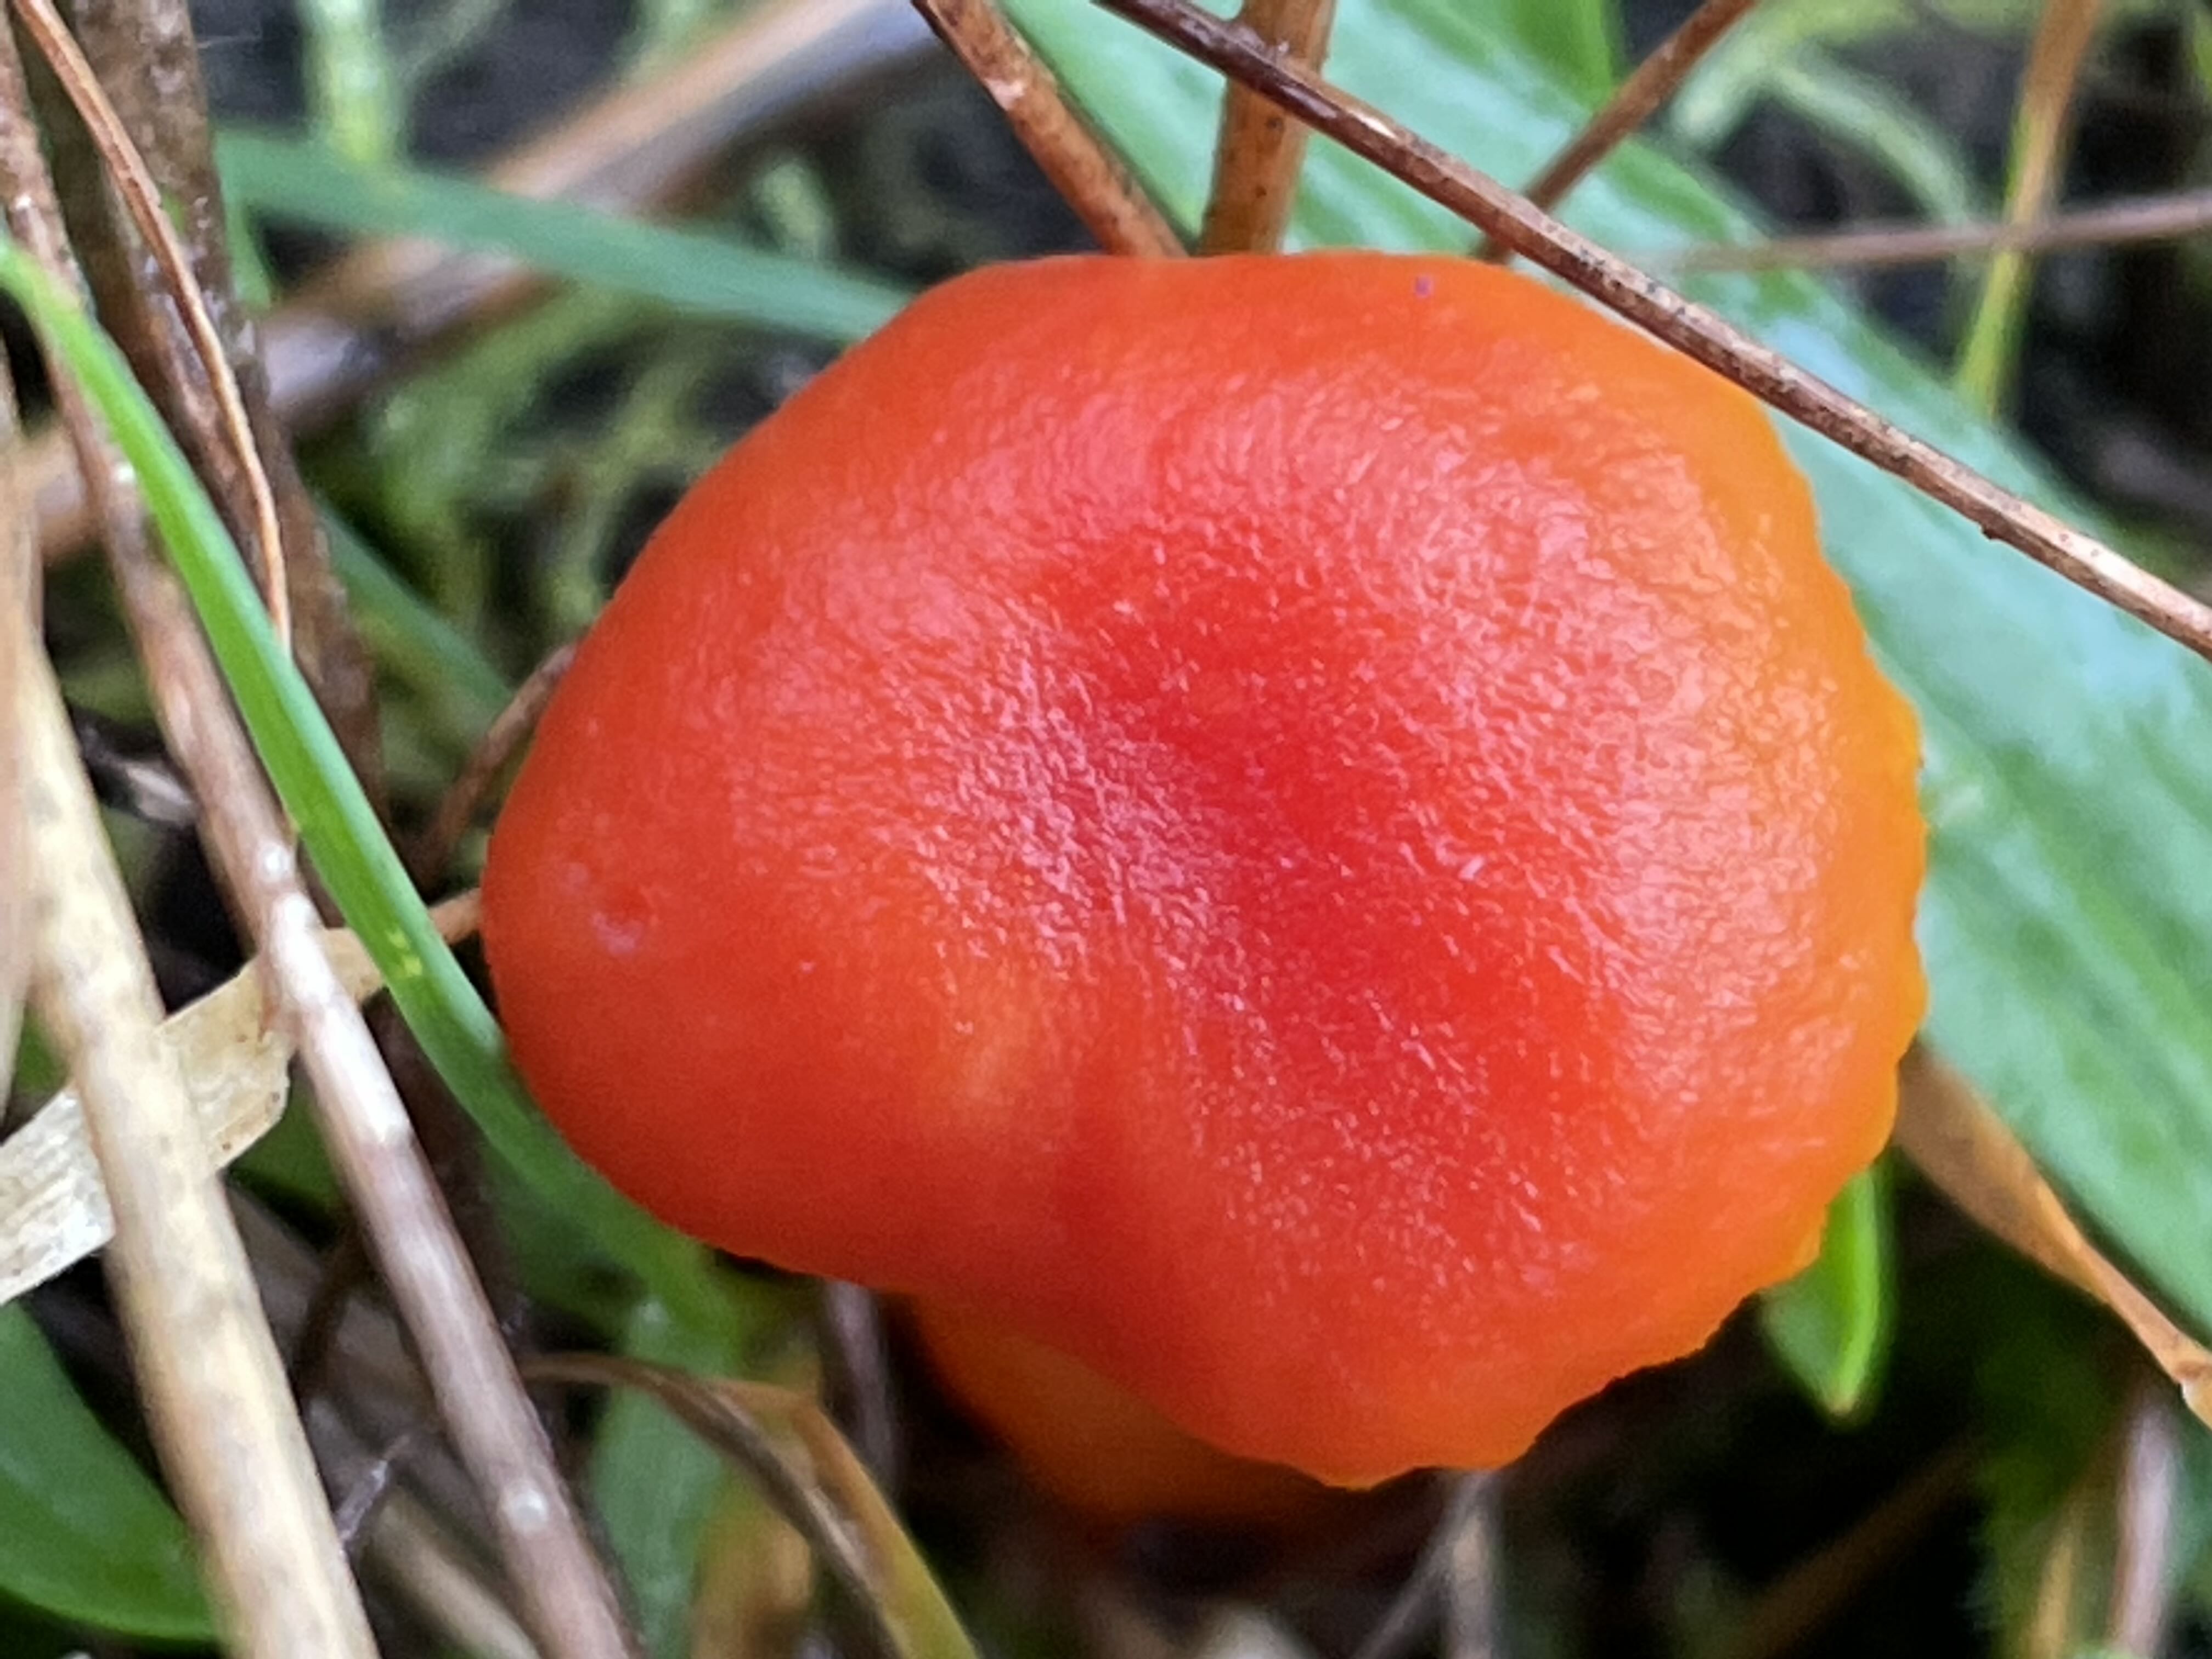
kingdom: Fungi
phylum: Basidiomycota
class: Agaricomycetes
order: Agaricales
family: Hygrophoraceae
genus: Hygrocybe
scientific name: Hygrocybe miniata
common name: mønje-vokshat
